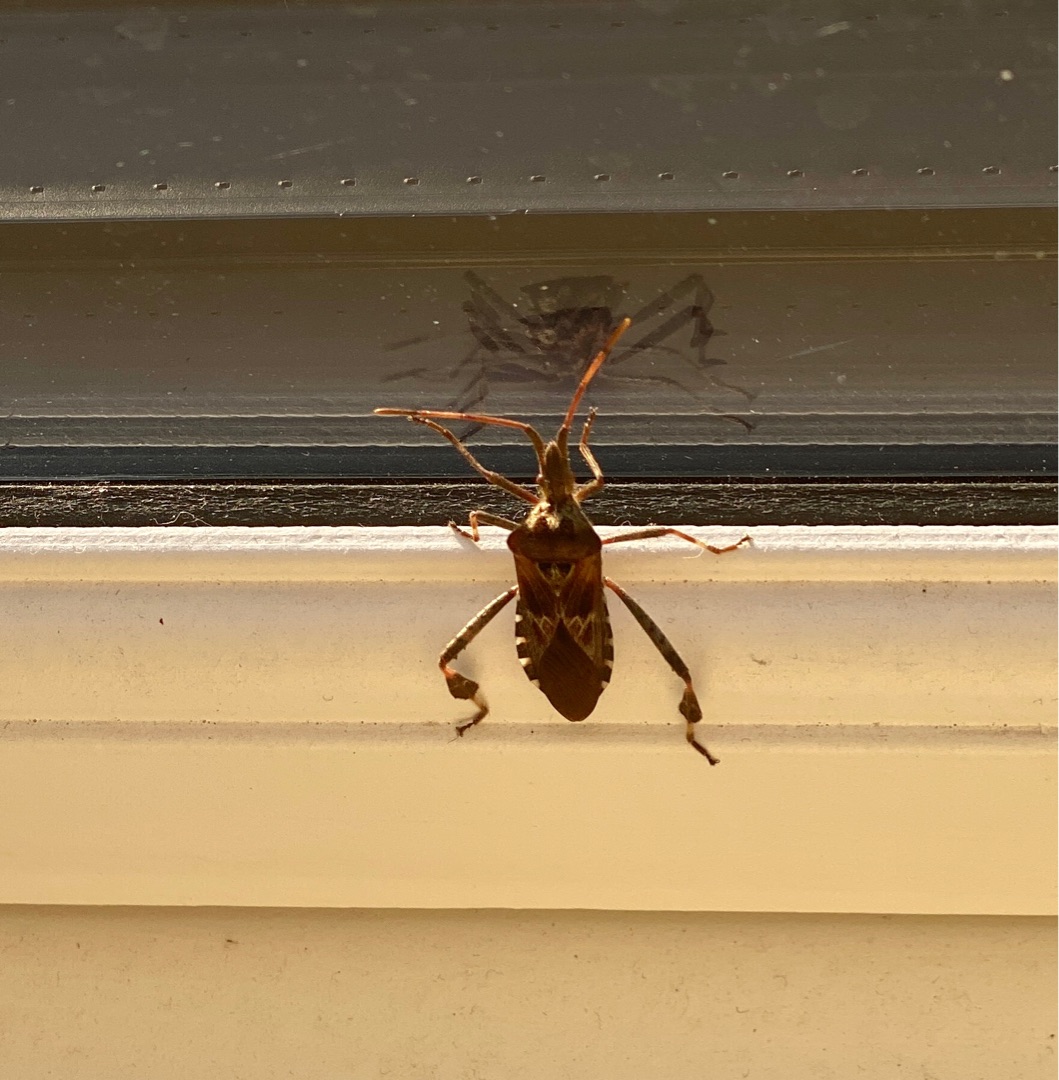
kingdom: Animalia
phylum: Arthropoda
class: Insecta
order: Hemiptera
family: Coreidae
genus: Leptoglossus
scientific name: Leptoglossus occidentalis
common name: Amerikansk fyrretæge
